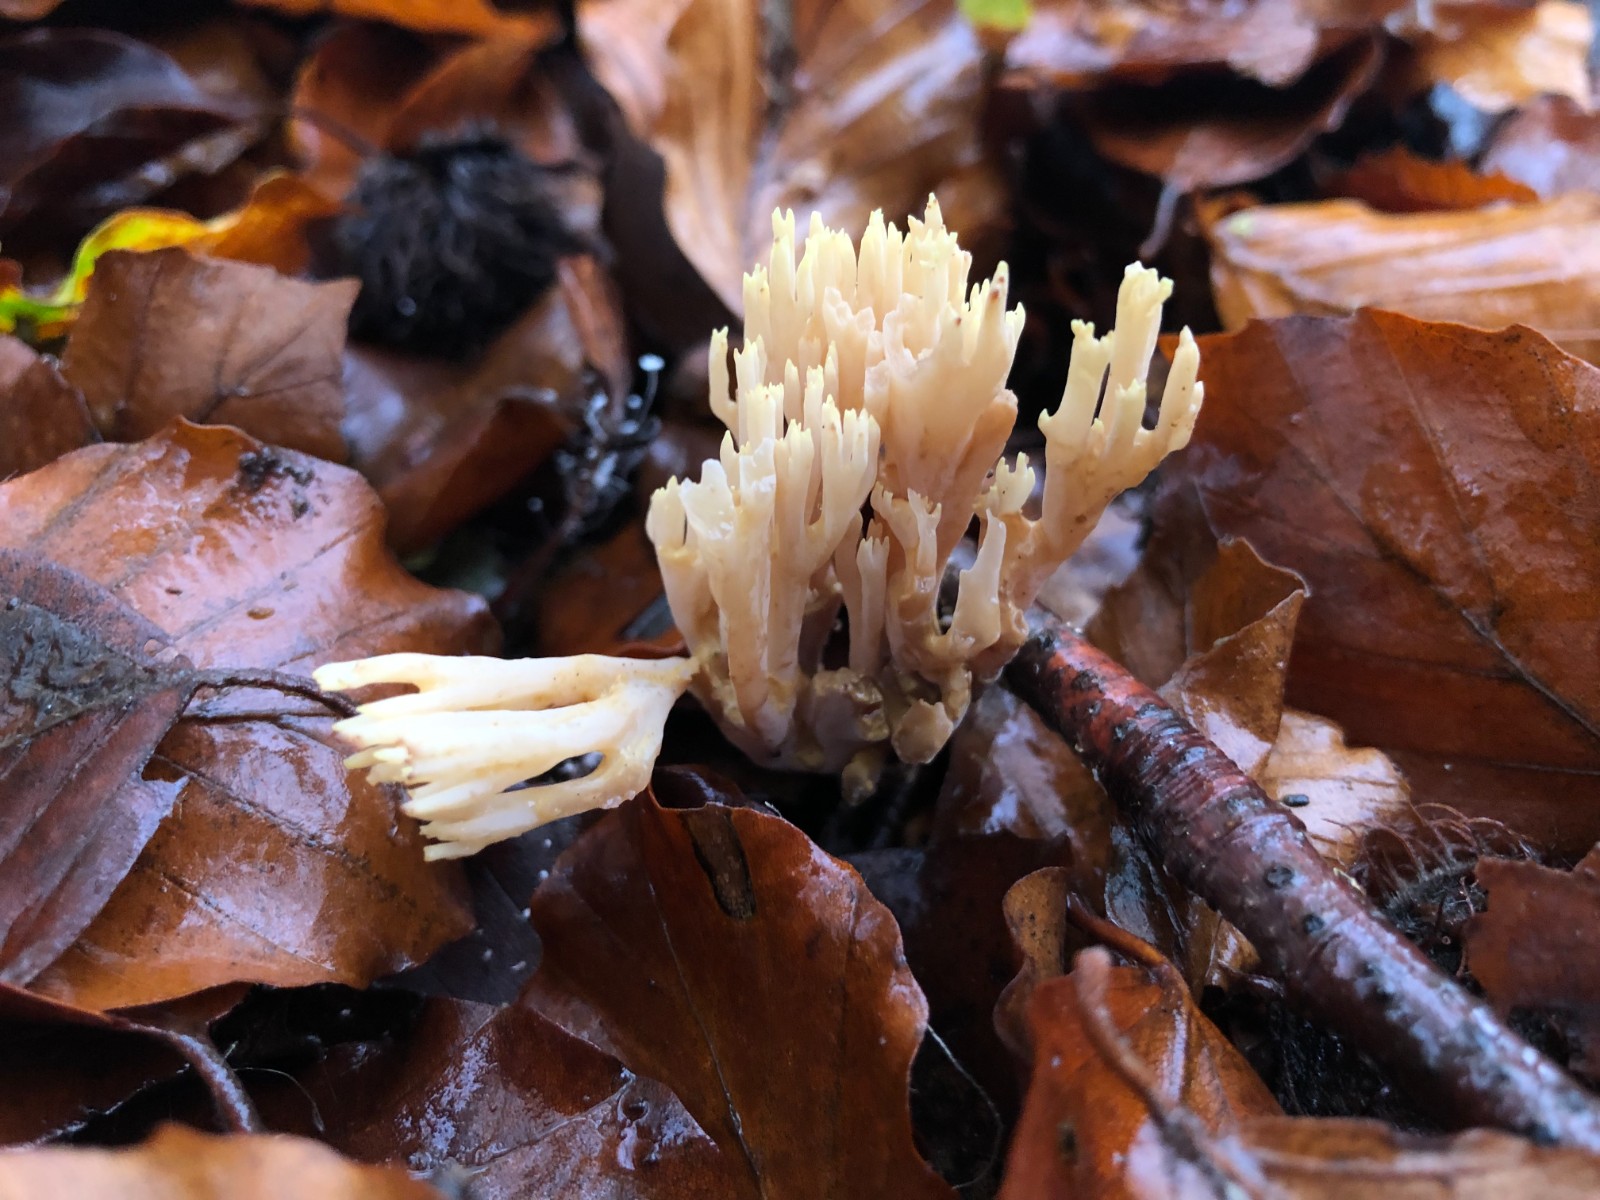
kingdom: Fungi
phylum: Basidiomycota
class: Agaricomycetes
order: Gomphales
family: Gomphaceae
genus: Ramaria
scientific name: Ramaria stricta
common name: rank koralsvamp
